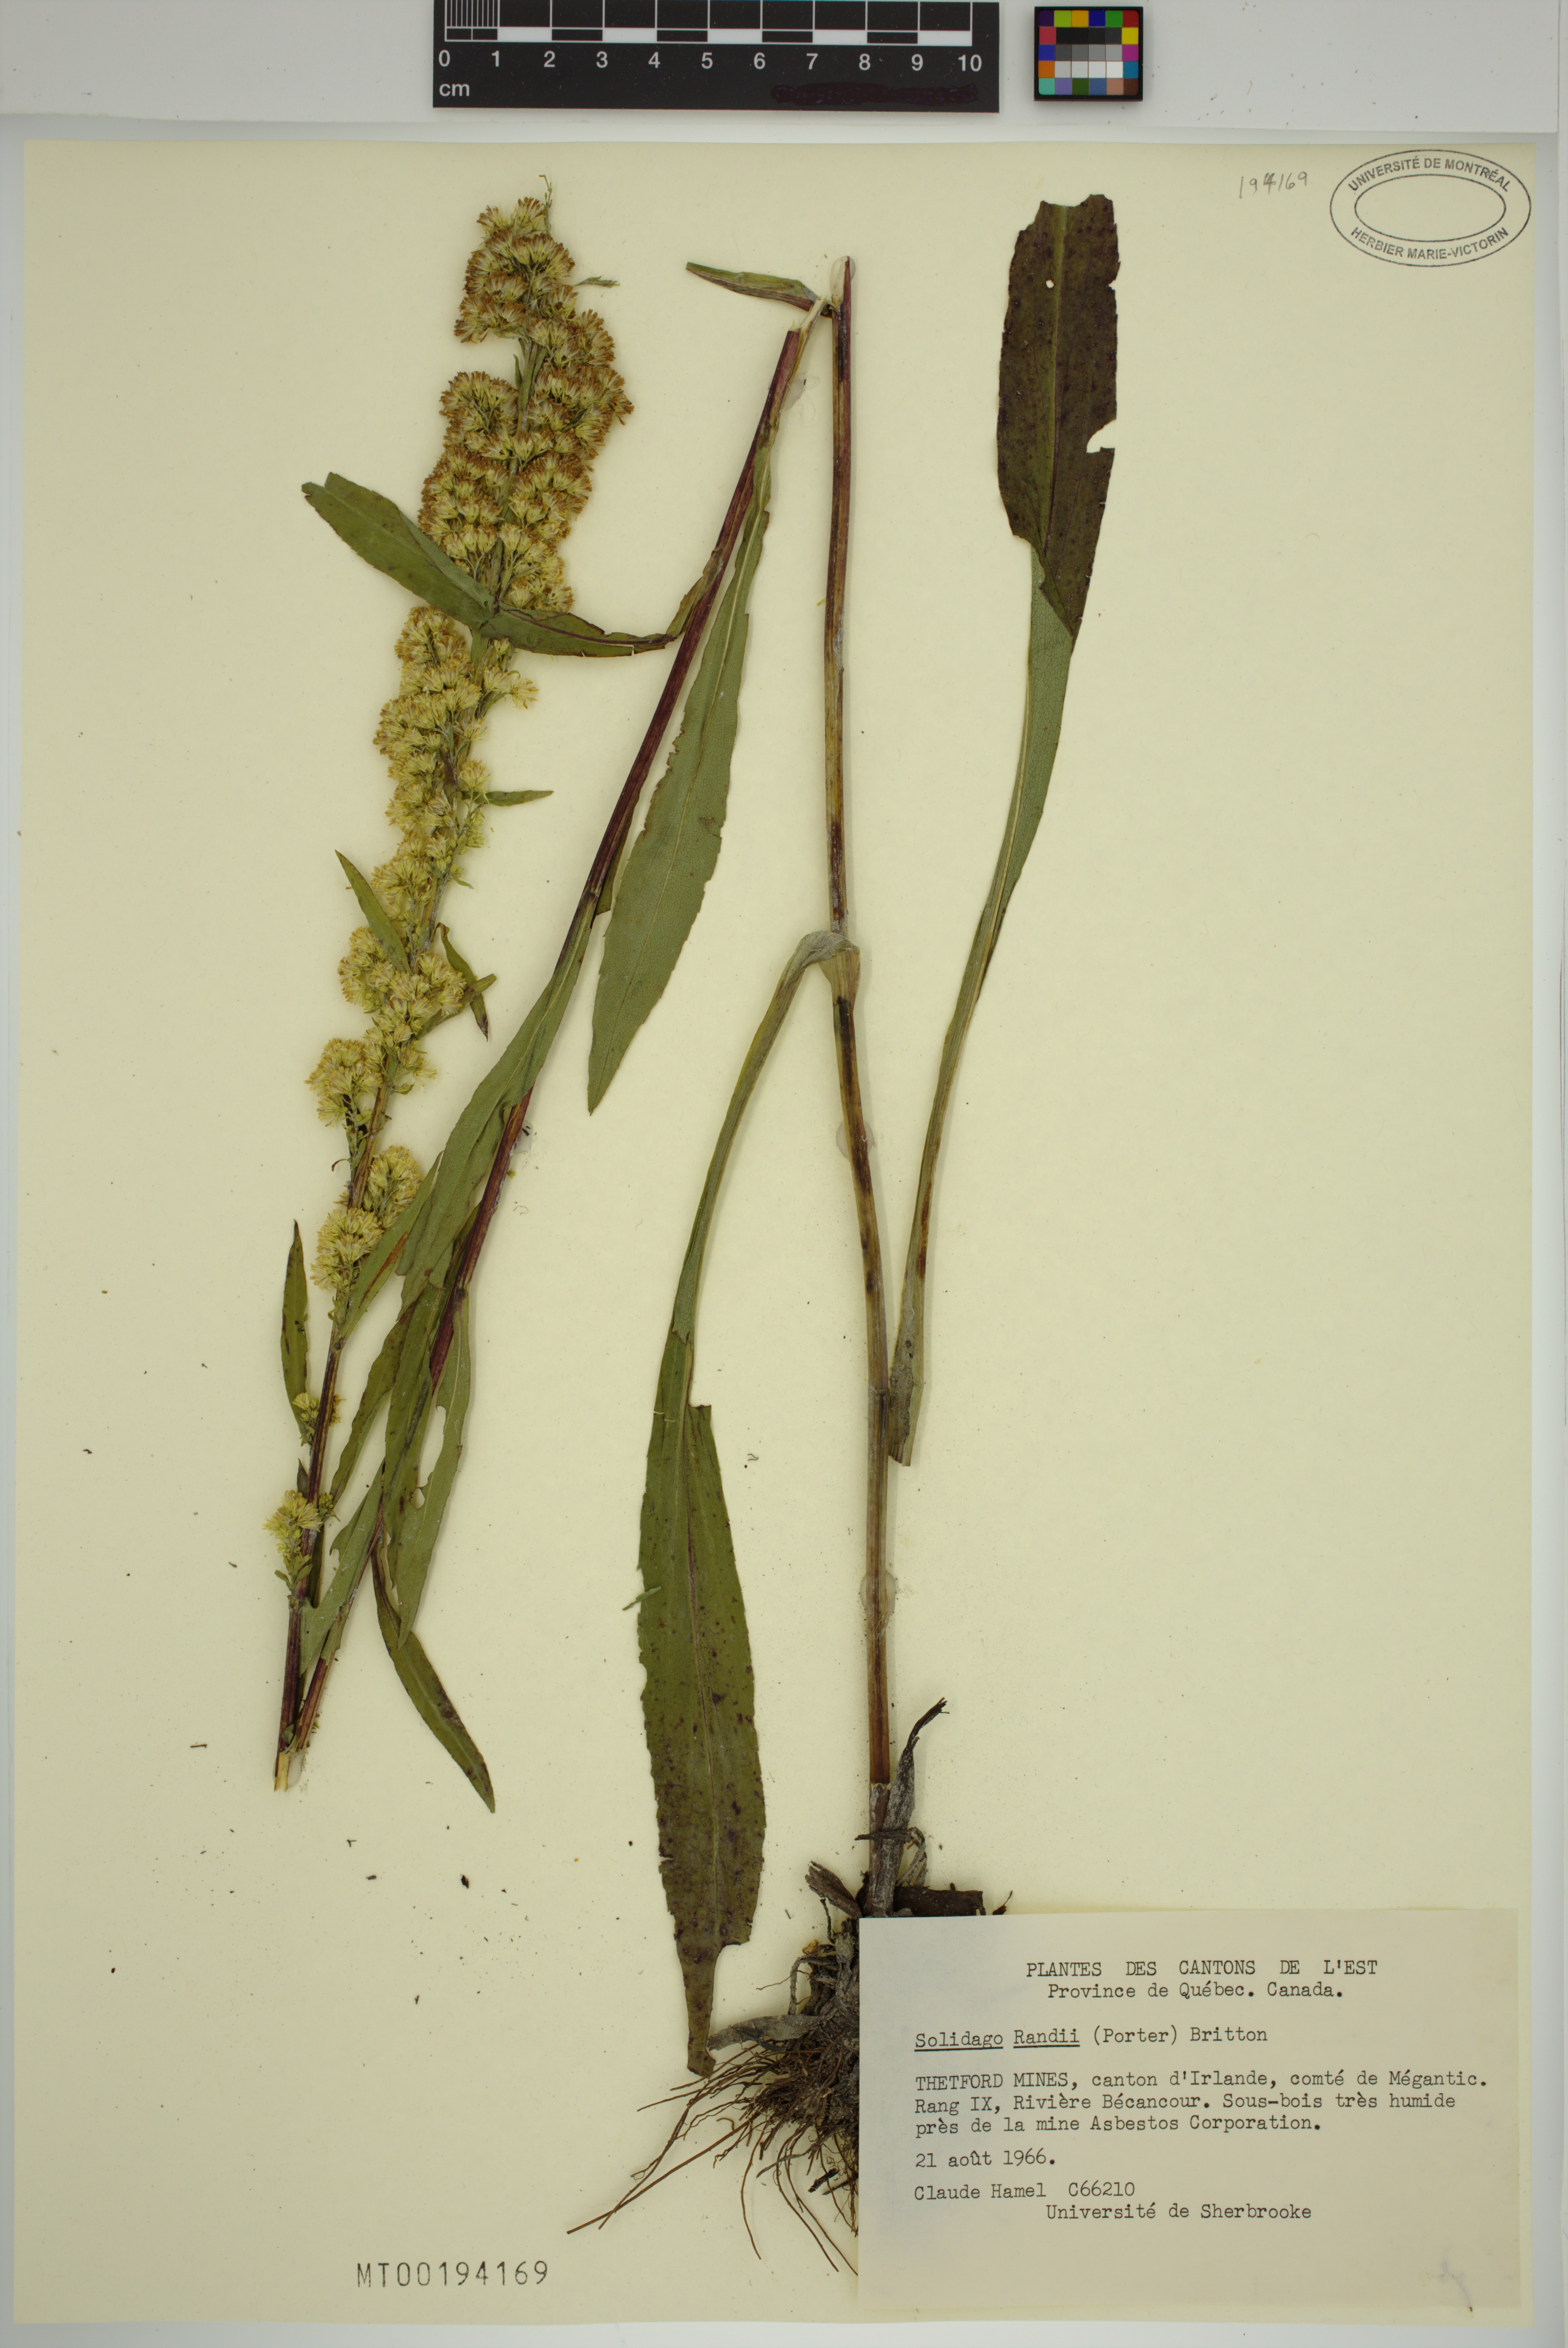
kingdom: Plantae
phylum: Tracheophyta
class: Magnoliopsida
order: Asterales
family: Asteraceae
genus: Solidago
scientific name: Solidago uliginosa
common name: Bog goldenrod
